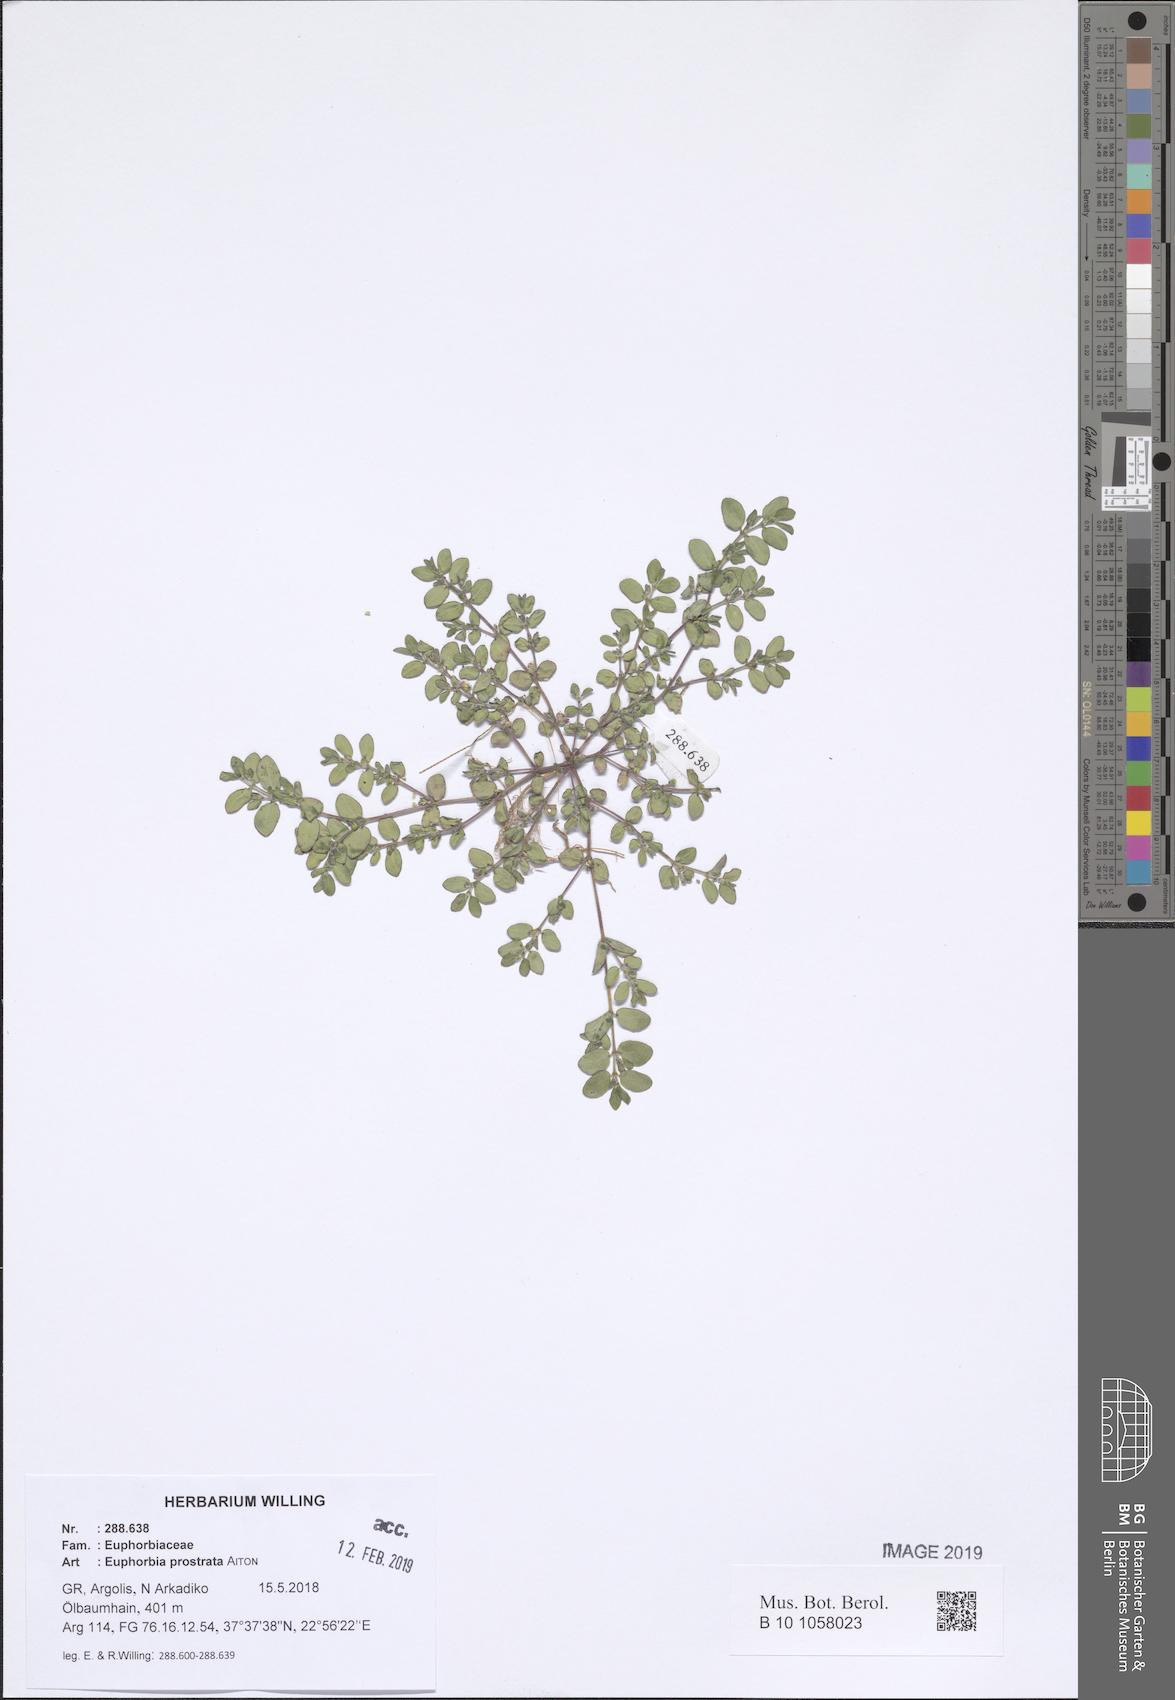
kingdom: Plantae
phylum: Tracheophyta
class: Magnoliopsida
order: Malpighiales
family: Euphorbiaceae
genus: Euphorbia
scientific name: Euphorbia prostrata
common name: Prostrate sandmat
